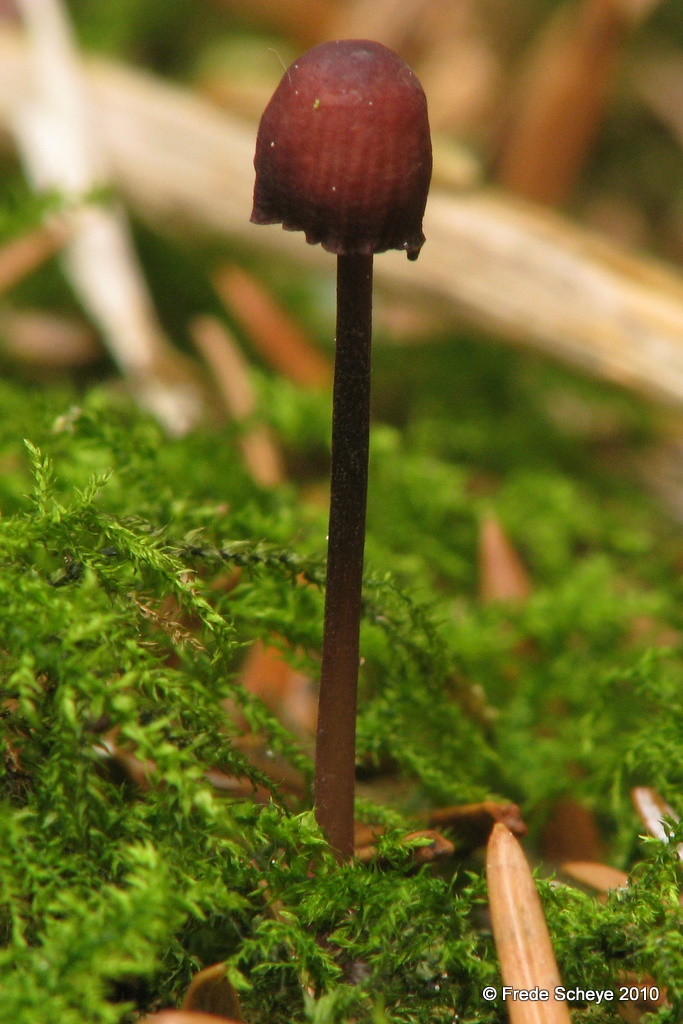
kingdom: Fungi
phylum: Basidiomycota
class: Agaricomycetes
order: Agaricales
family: Mycenaceae
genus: Mycena
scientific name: Mycena sanguinolenta
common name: rødmælket huesvamp
